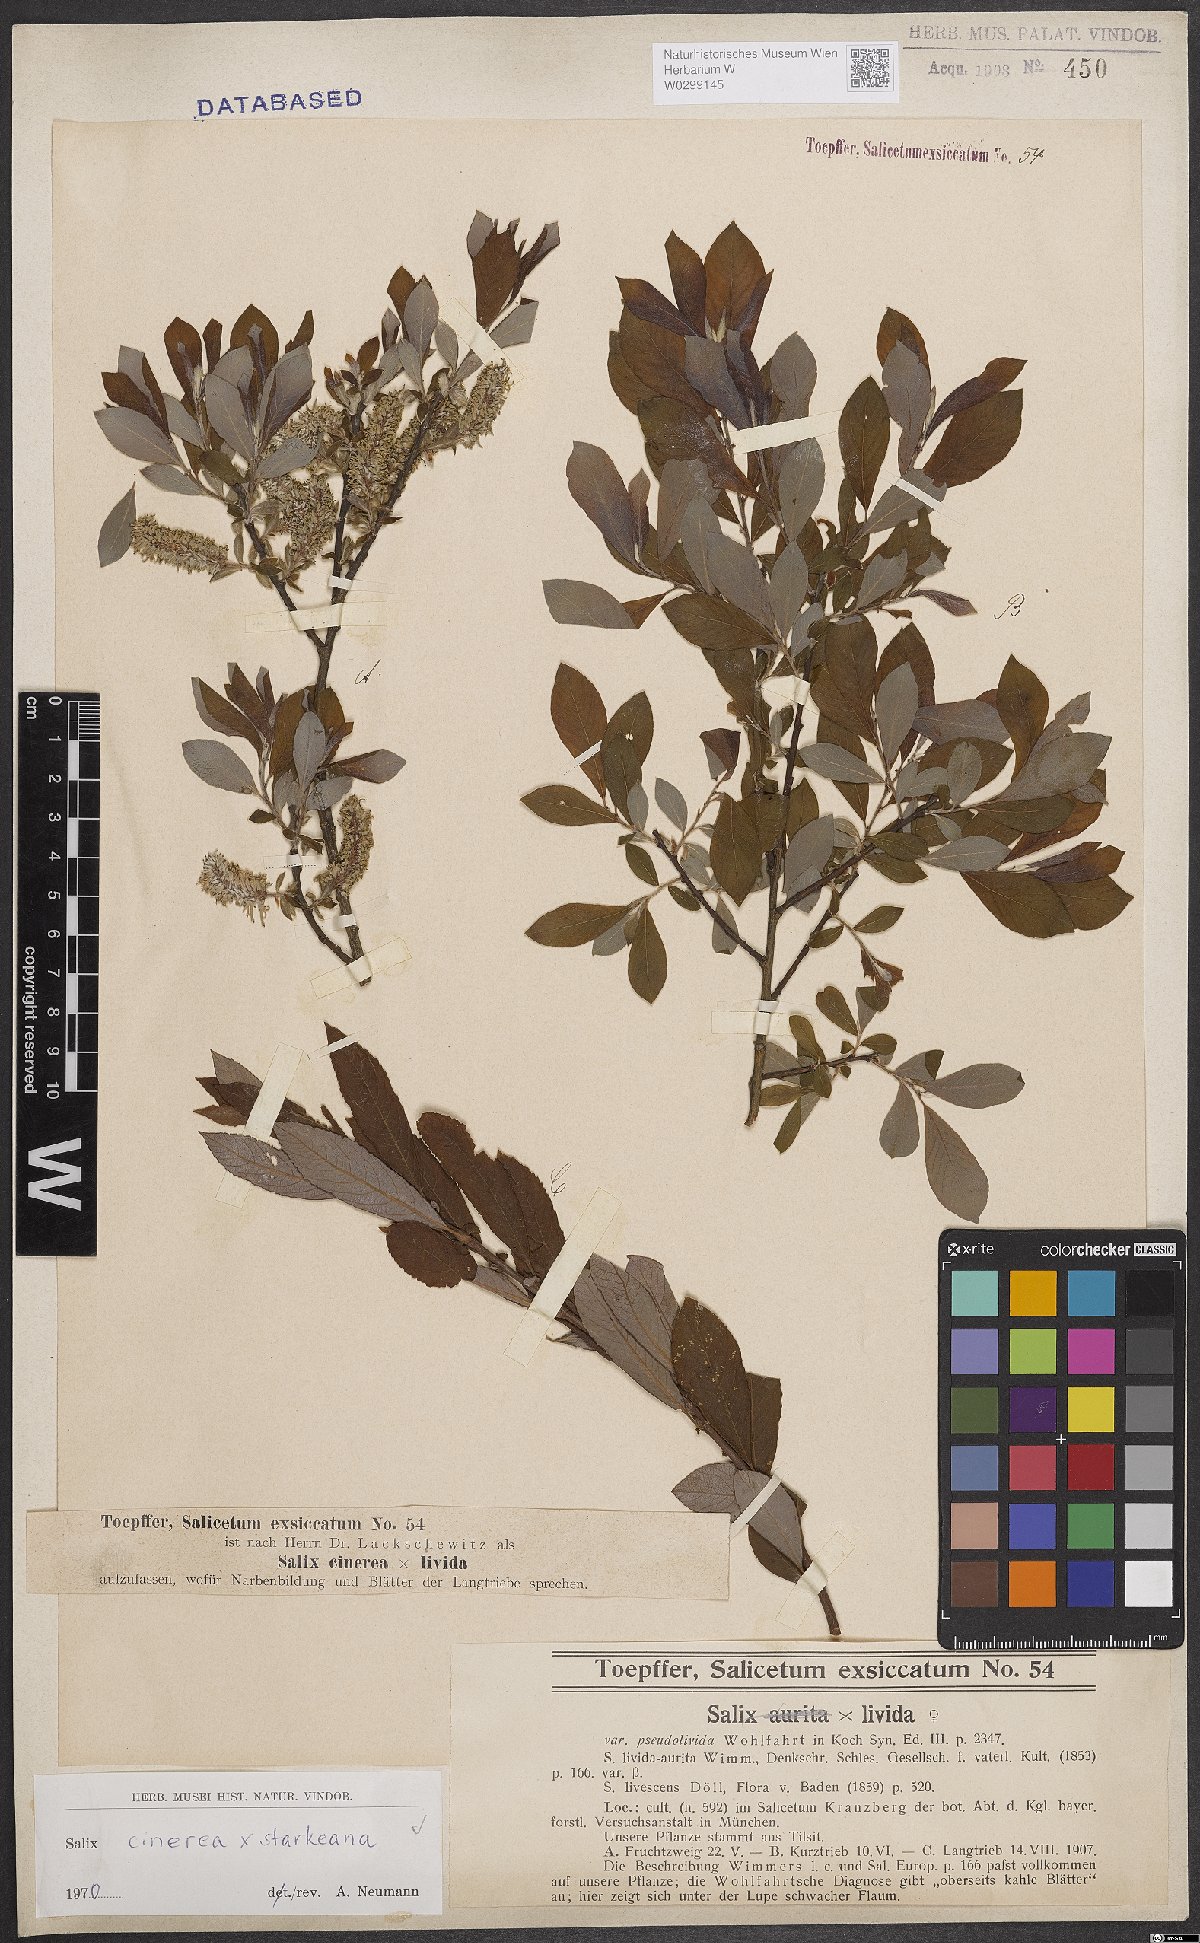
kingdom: Plantae
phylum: Tracheophyta
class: Magnoliopsida
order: Malpighiales
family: Salicaceae
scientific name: Salicaceae
